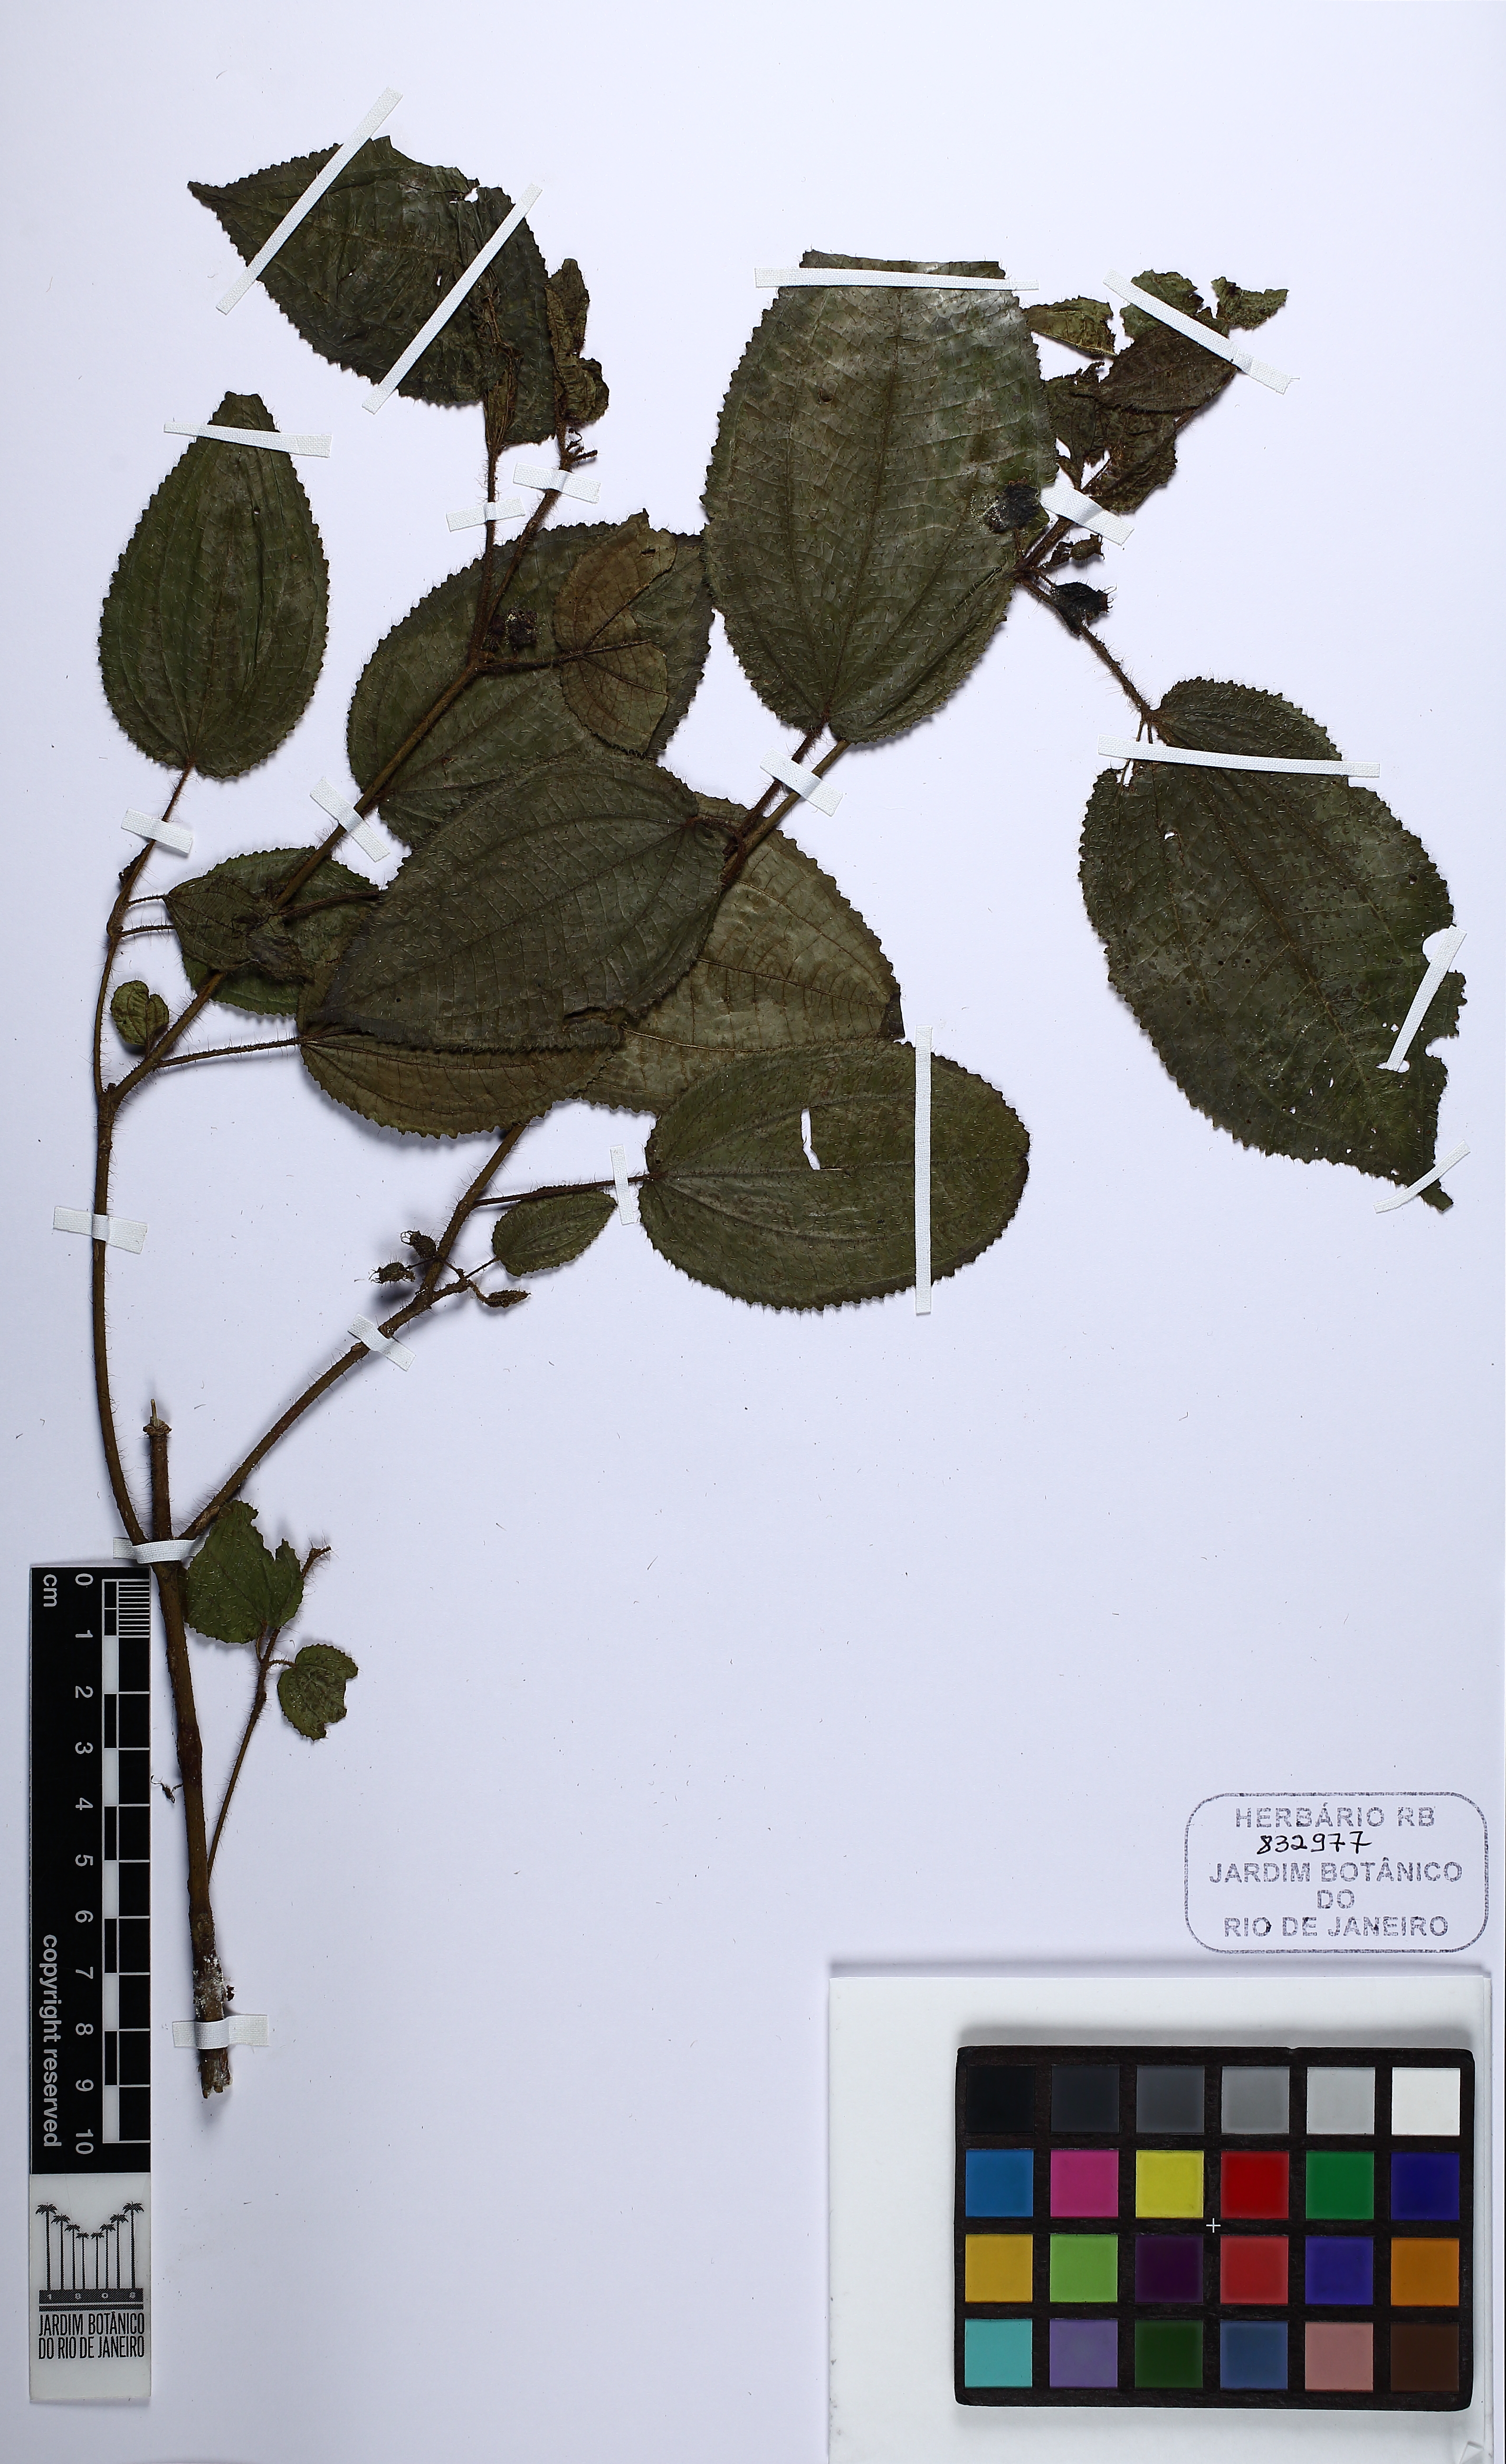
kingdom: Plantae
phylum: Tracheophyta
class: Magnoliopsida
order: Myrtales
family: Melastomataceae
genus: Miconia
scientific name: Miconia
